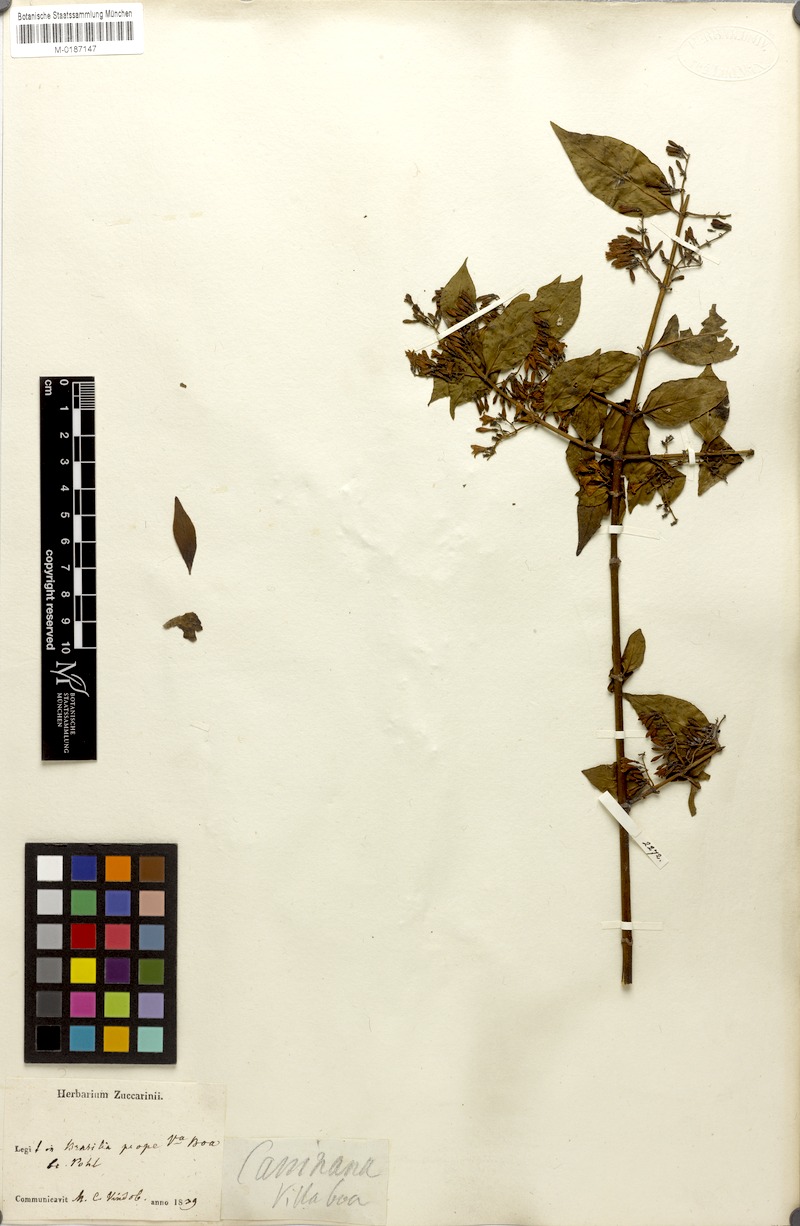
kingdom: Plantae
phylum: Tracheophyta
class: Magnoliopsida
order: Gentianales
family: Rubiaceae
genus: Chiococca
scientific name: Chiococca alba
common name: Snowberry
